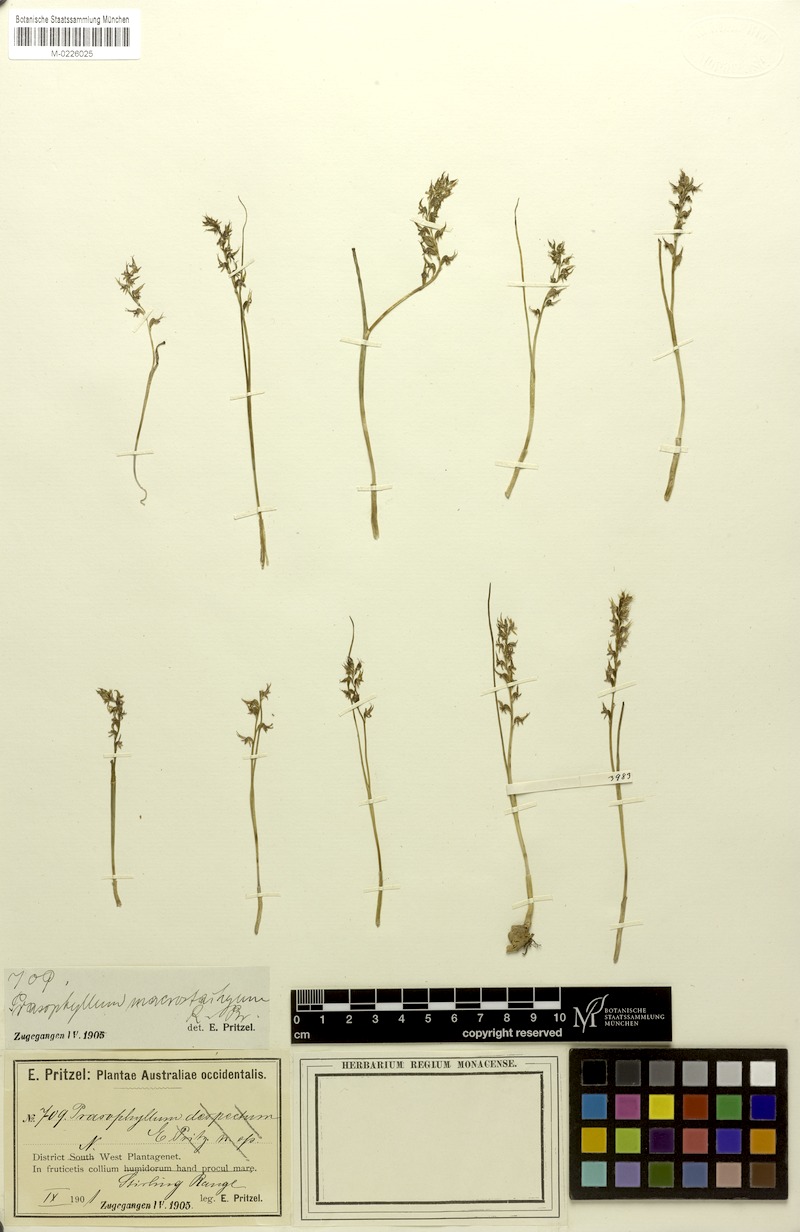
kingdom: Plantae
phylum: Tracheophyta
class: Liliopsida
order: Asparagales
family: Orchidaceae
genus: Prasophyllum
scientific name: Prasophyllum macrostachyum
